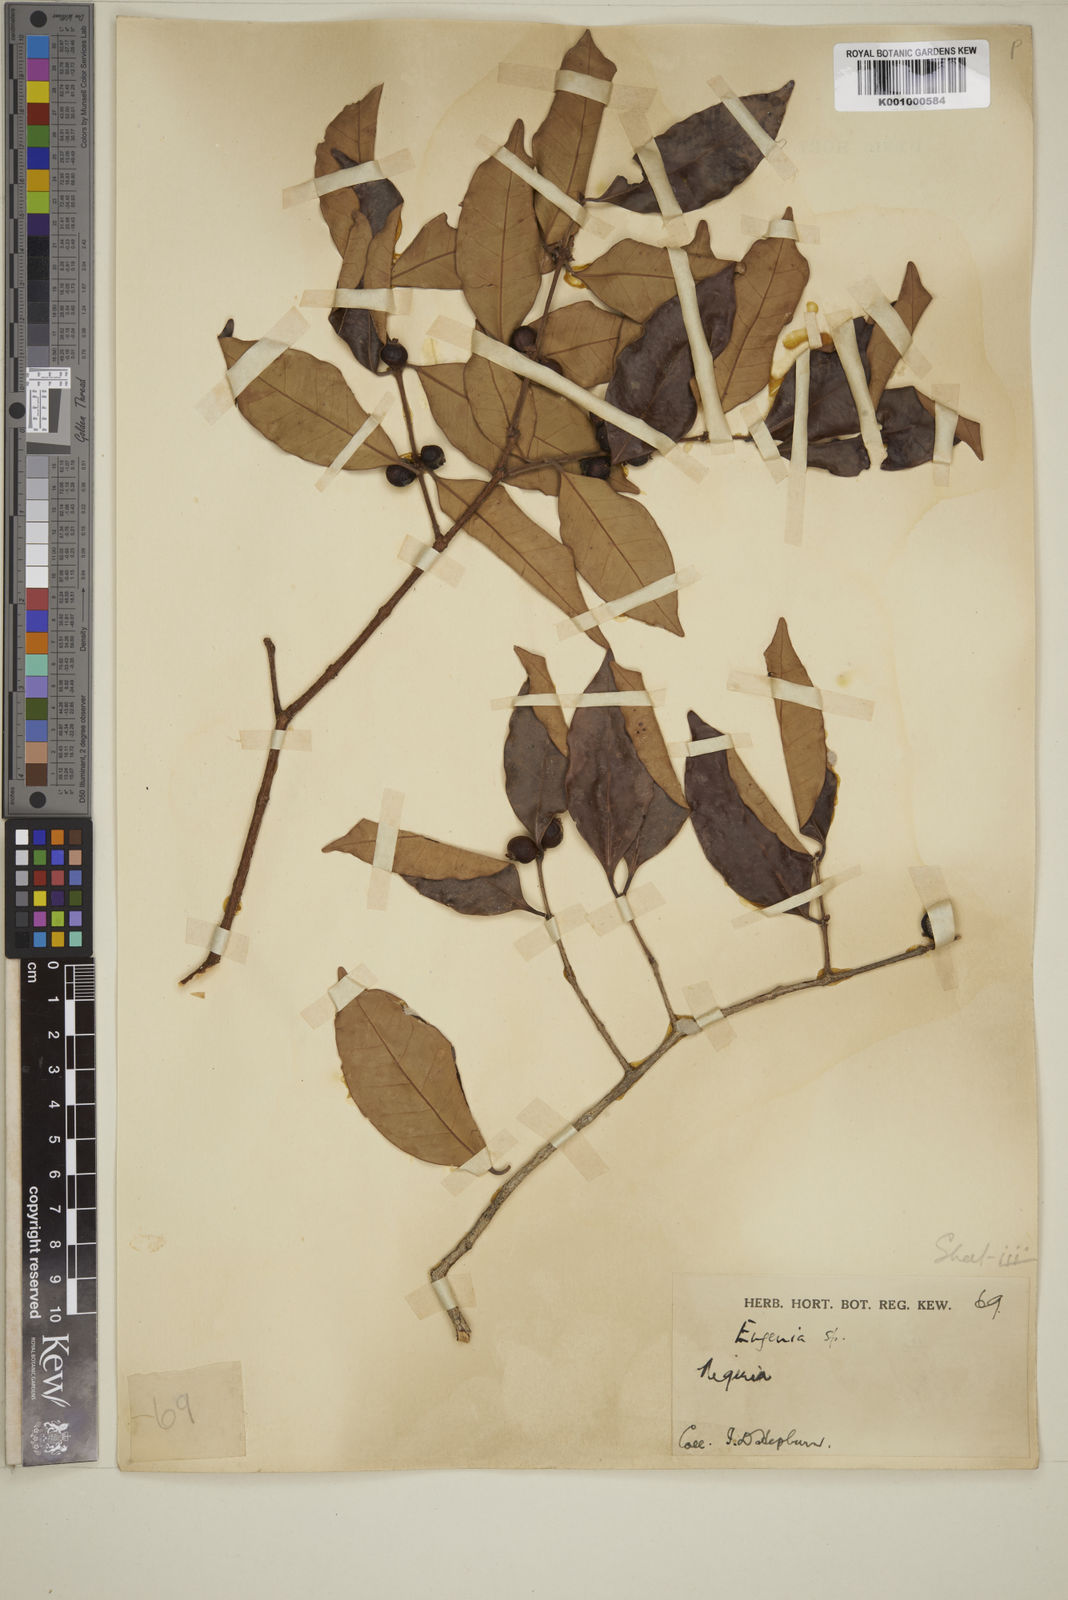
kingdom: Plantae
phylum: Tracheophyta
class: Magnoliopsida
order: Myrtales
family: Myrtaceae
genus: Eugenia
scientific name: Eugenia buchholzii
